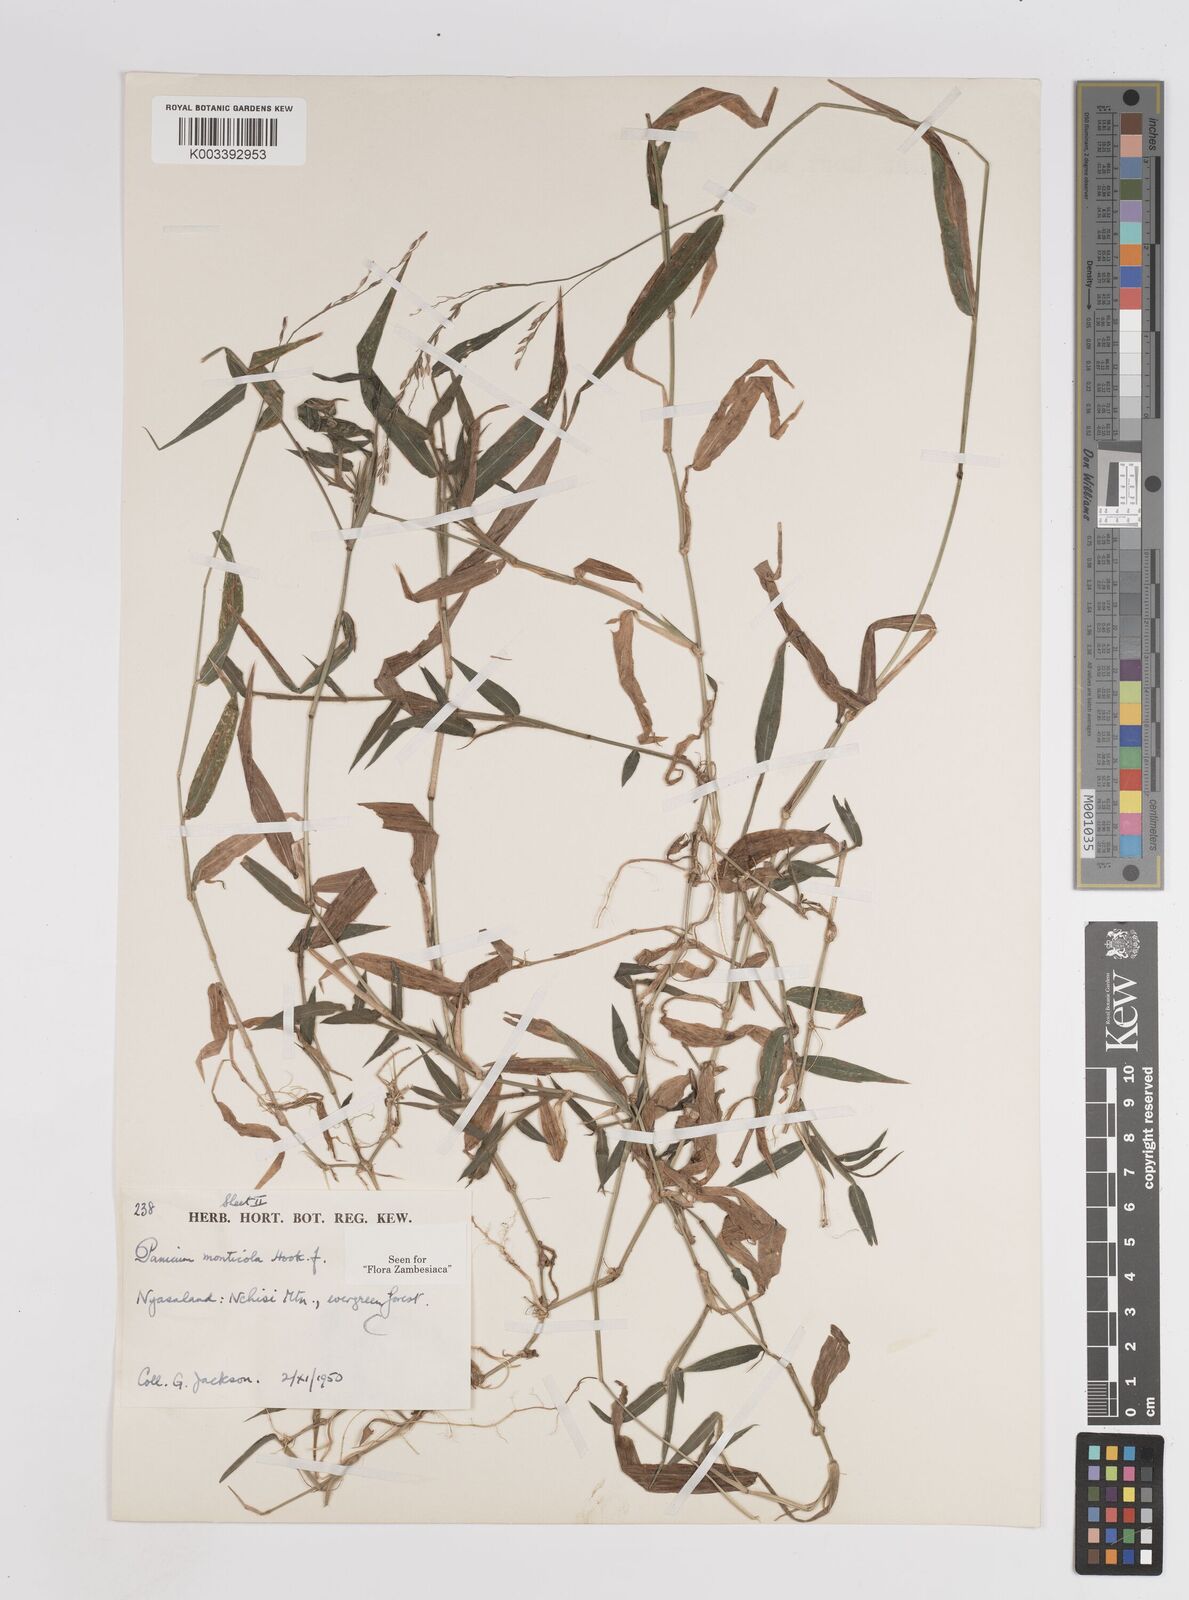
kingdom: Plantae
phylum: Tracheophyta
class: Liliopsida
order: Poales
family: Poaceae
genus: Panicum
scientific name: Panicum monticola
